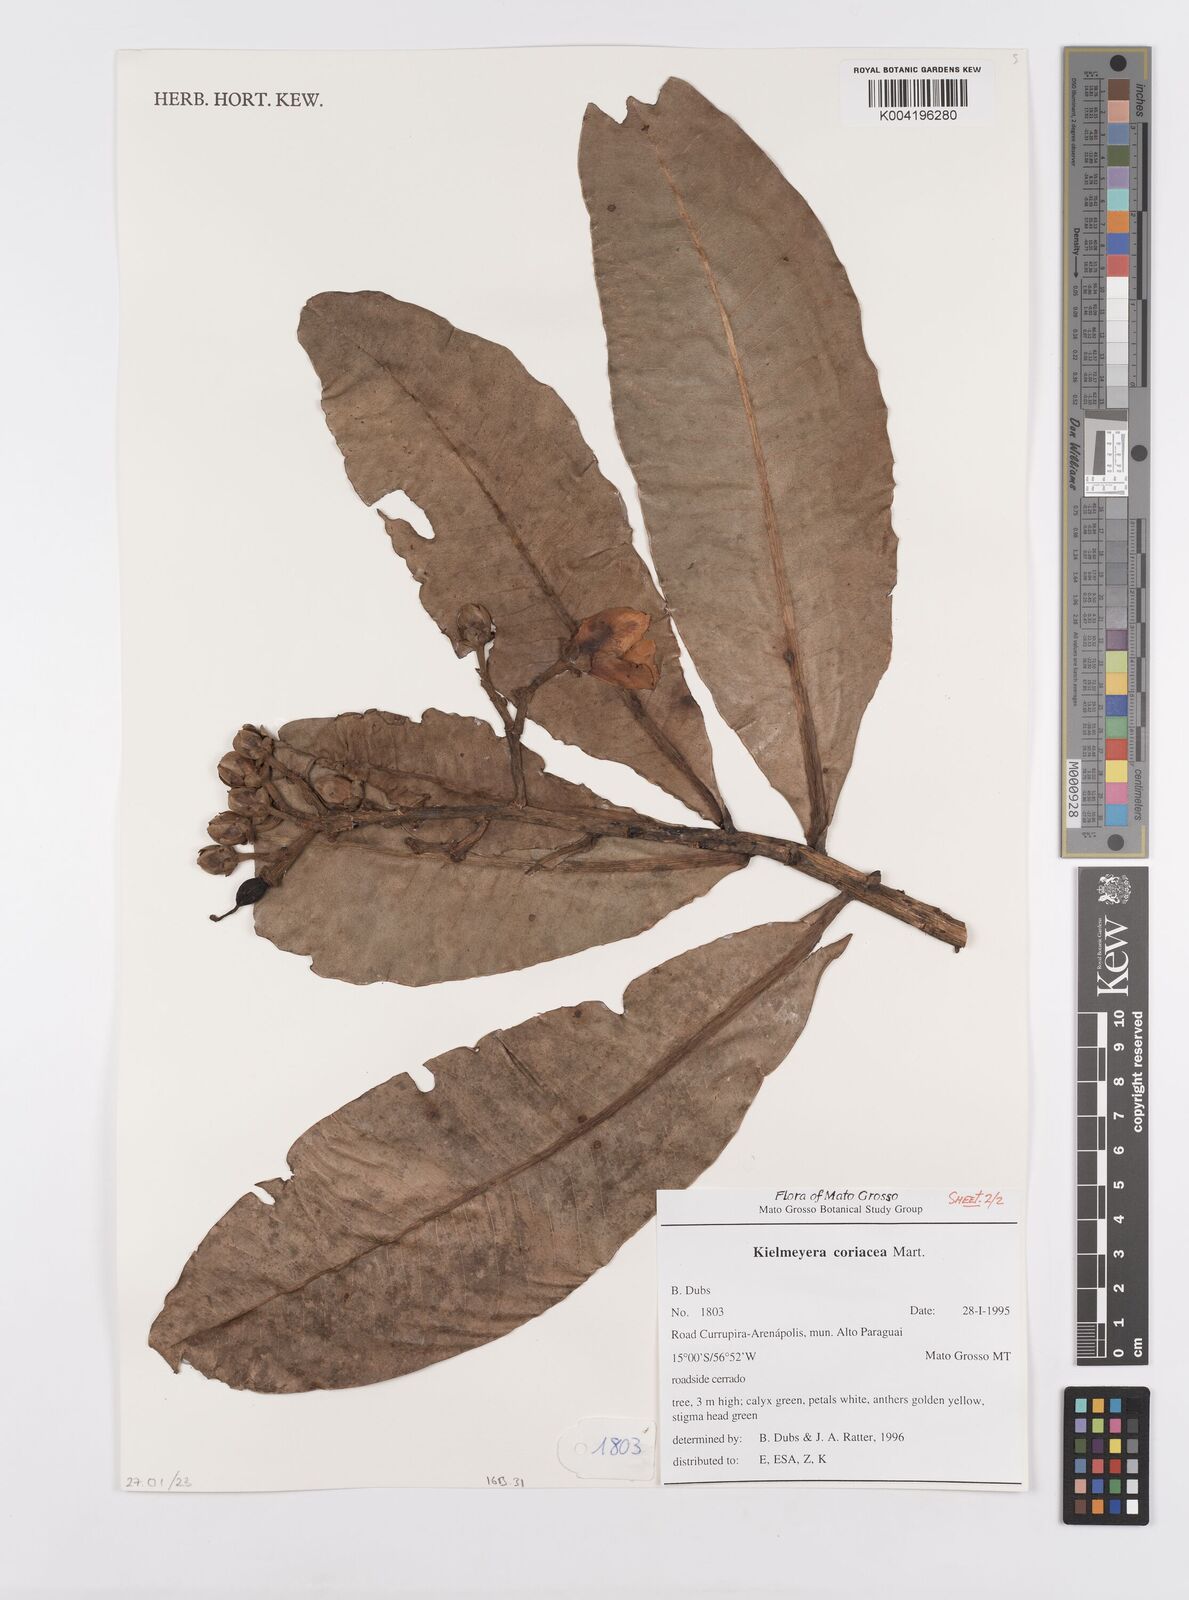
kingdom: Plantae
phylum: Tracheophyta
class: Magnoliopsida
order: Malpighiales
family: Calophyllaceae
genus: Kielmeyera
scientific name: Kielmeyera coriacea
